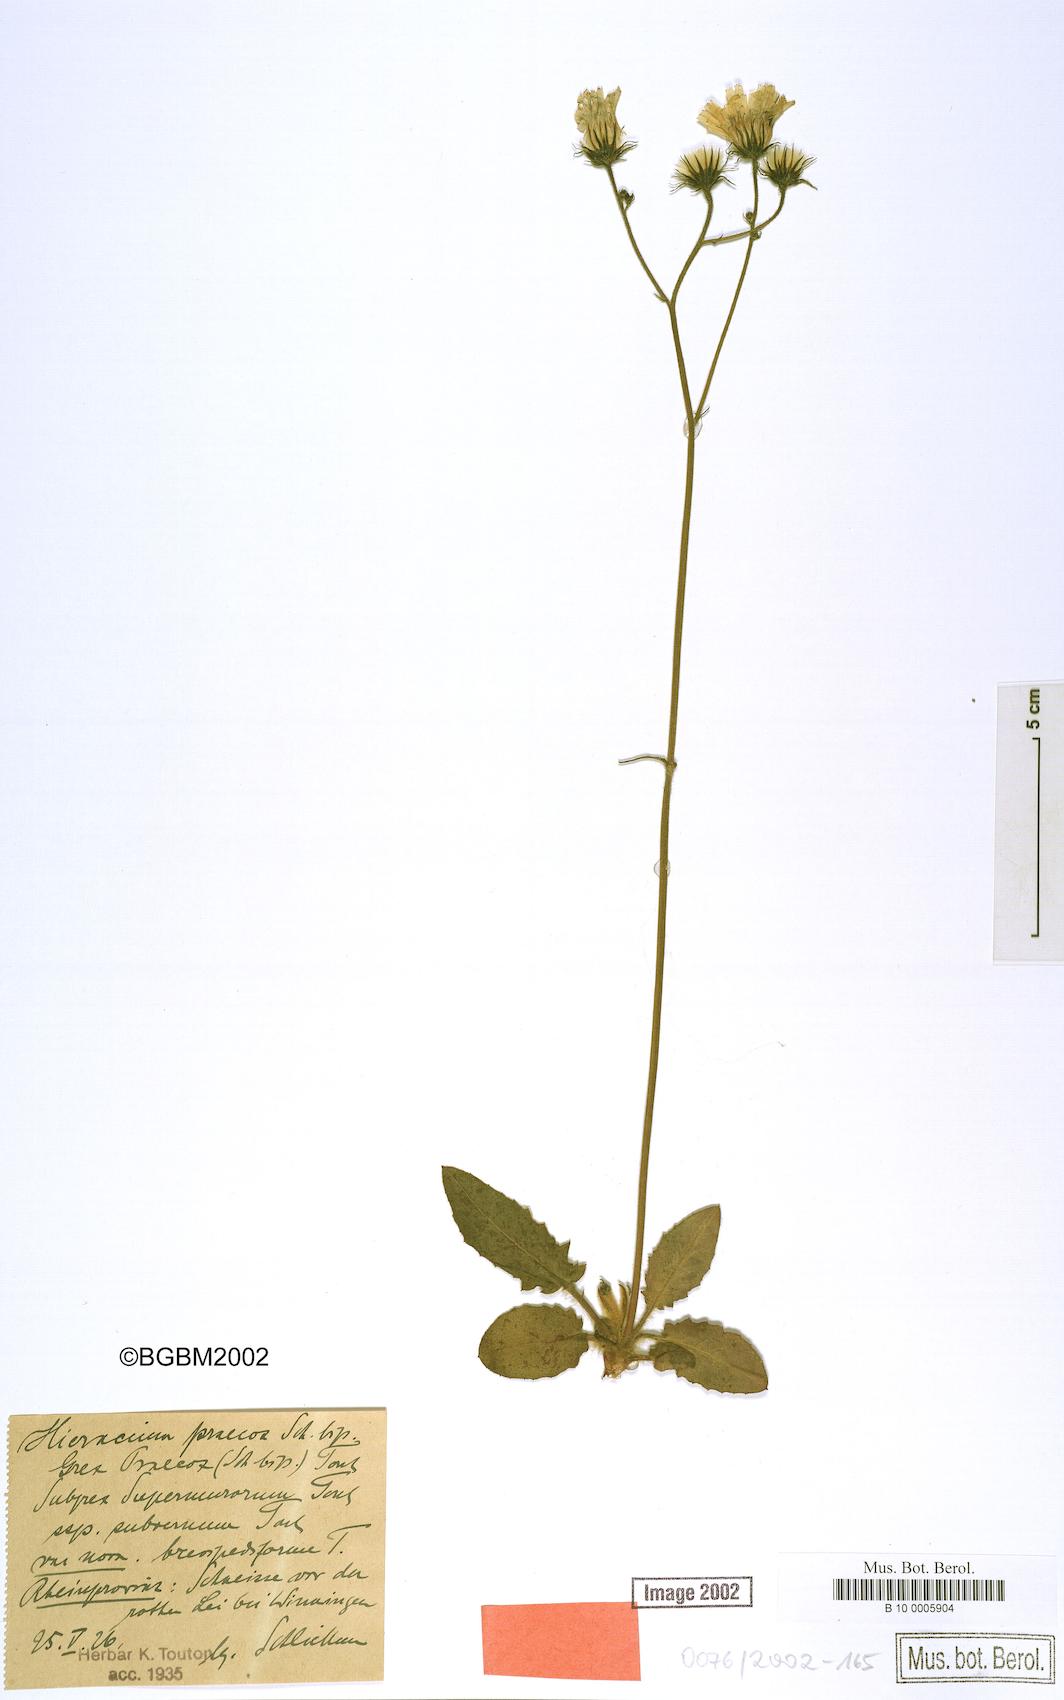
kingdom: Plantae
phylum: Tracheophyta
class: Magnoliopsida
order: Asterales
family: Asteraceae
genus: Hieracium
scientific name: Hieracium praecox
